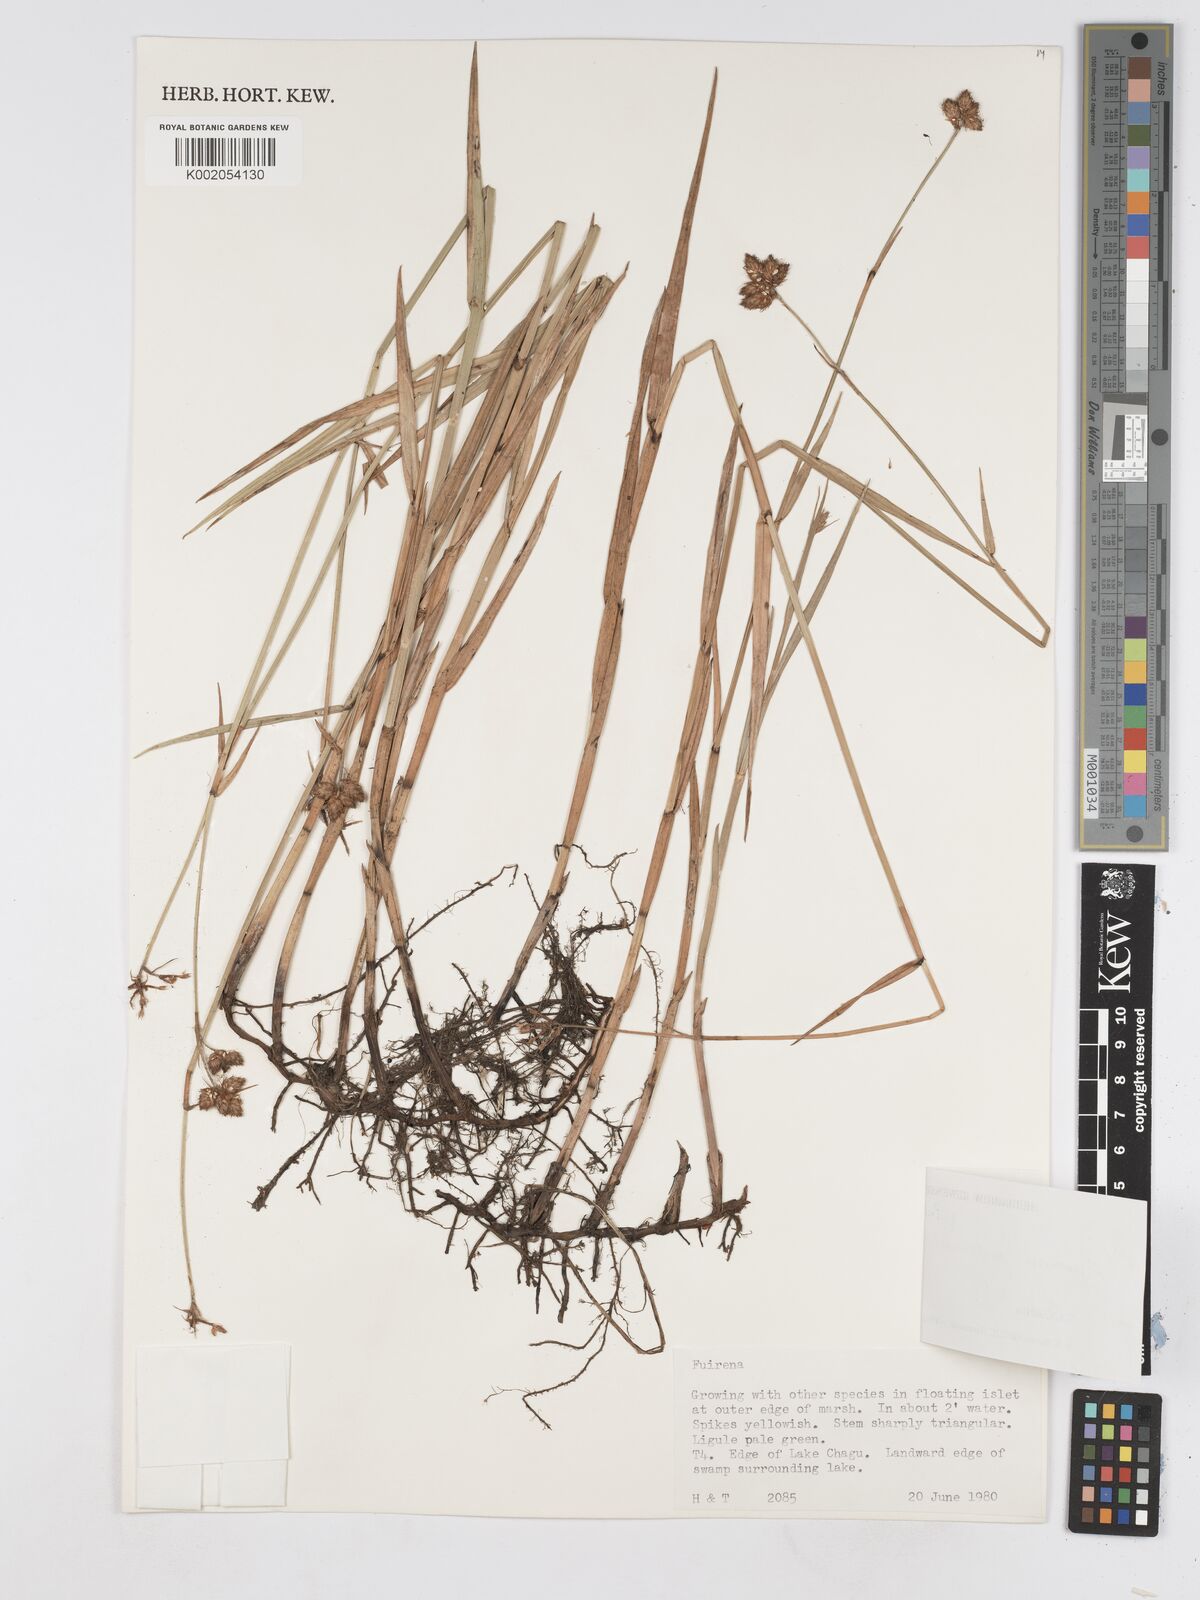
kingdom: Plantae
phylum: Tracheophyta
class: Liliopsida
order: Poales
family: Cyperaceae
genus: Fuirena
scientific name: Fuirena pubescens
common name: Hairy sedge
